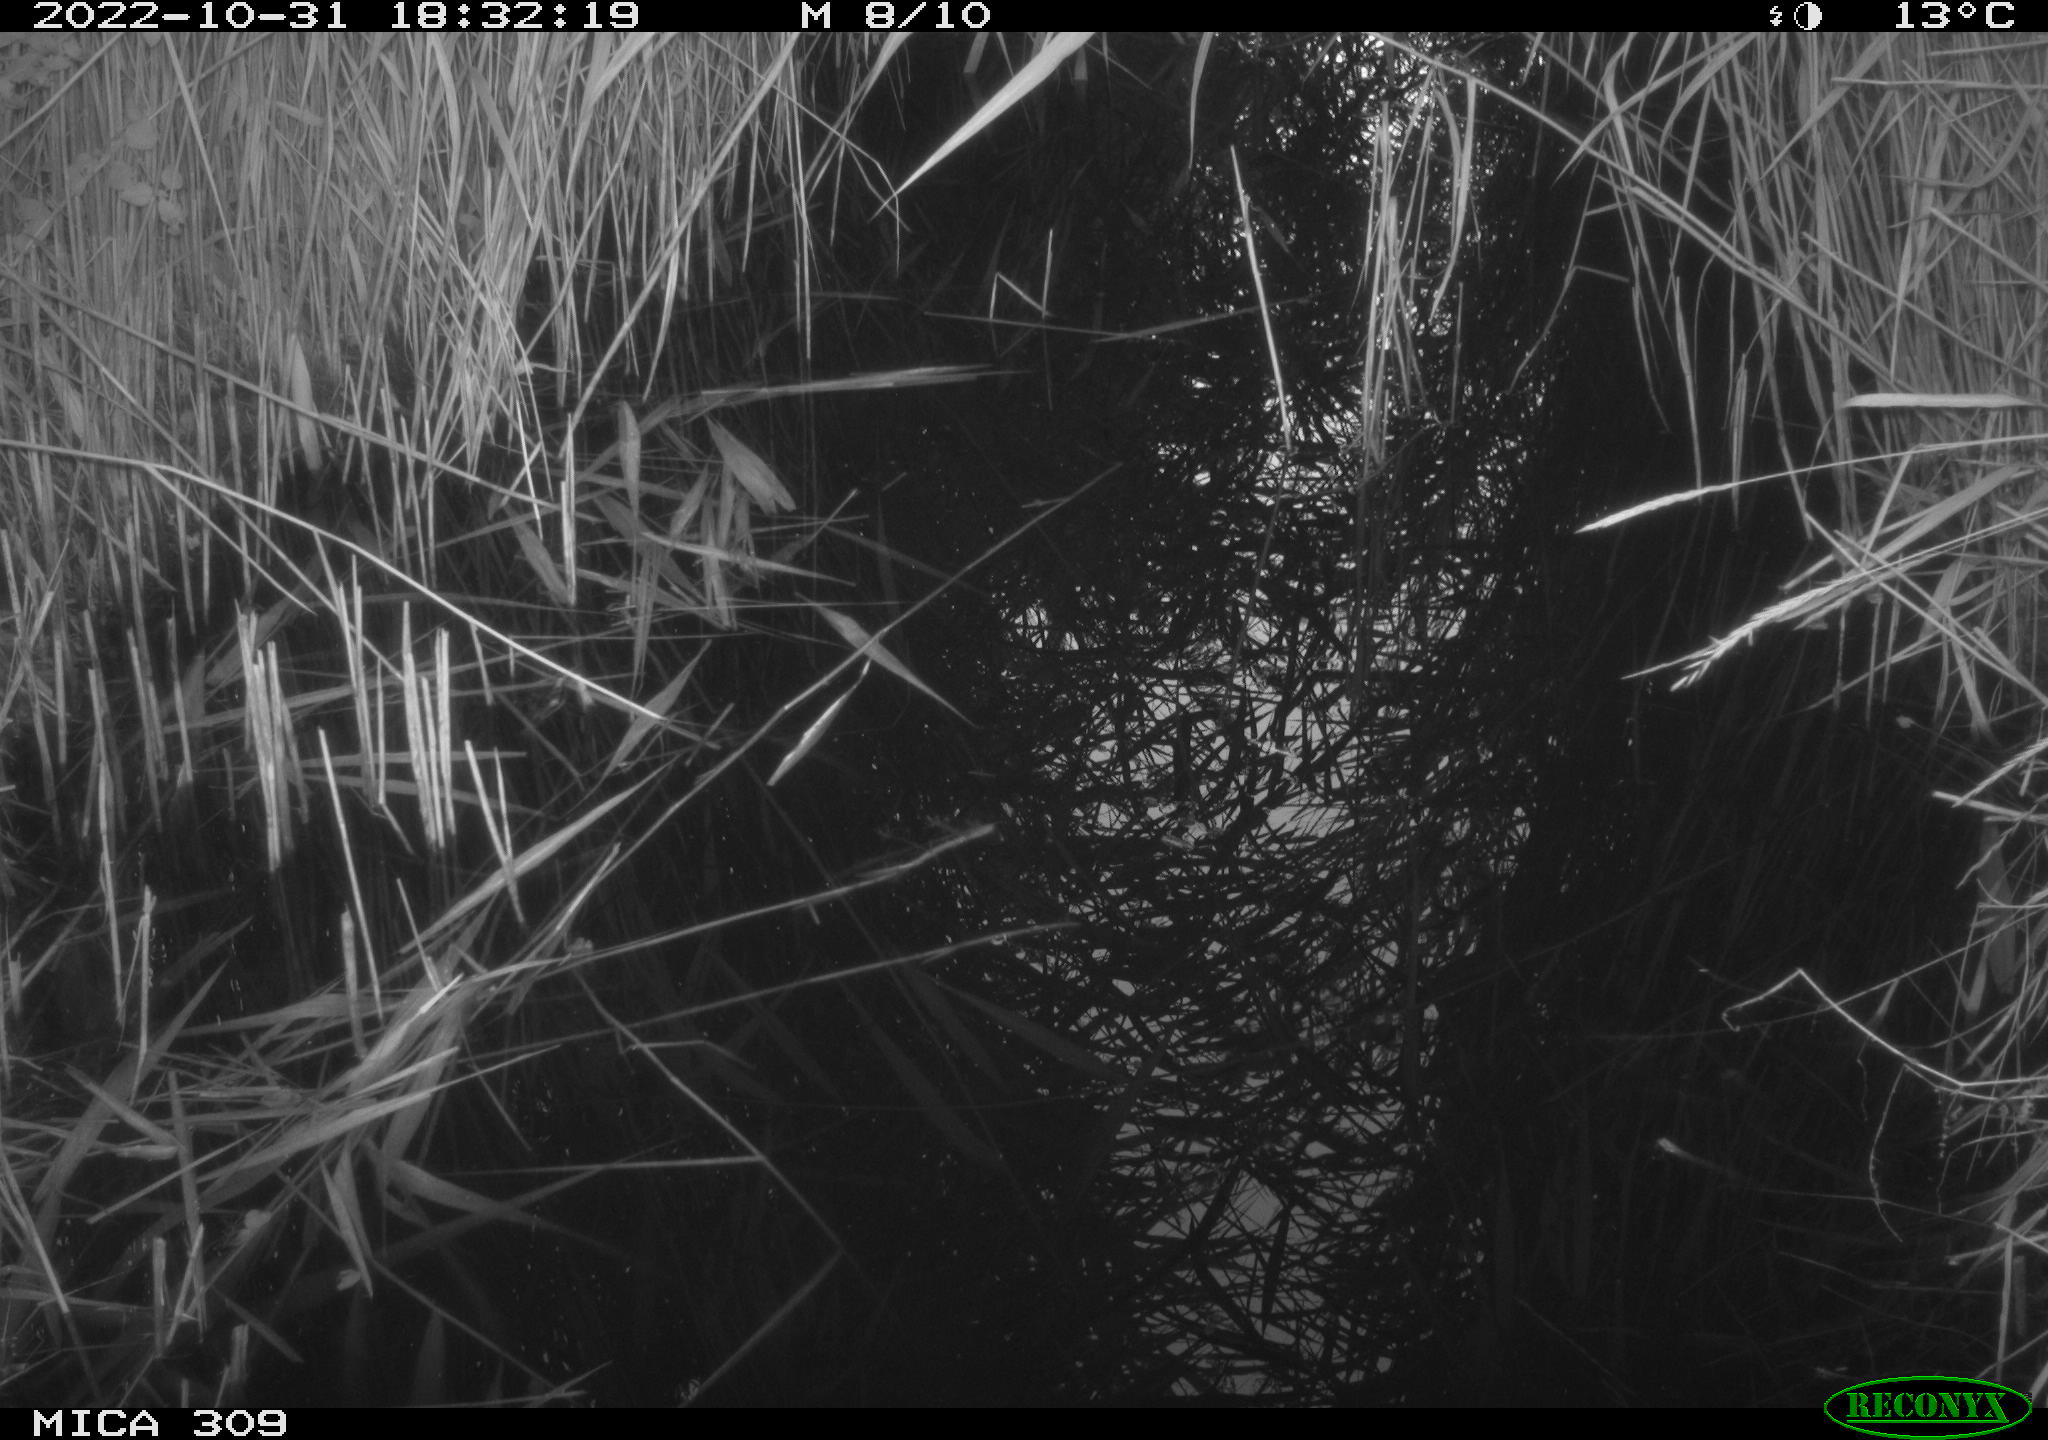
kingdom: Animalia
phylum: Chordata
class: Mammalia
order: Rodentia
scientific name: Rodentia
